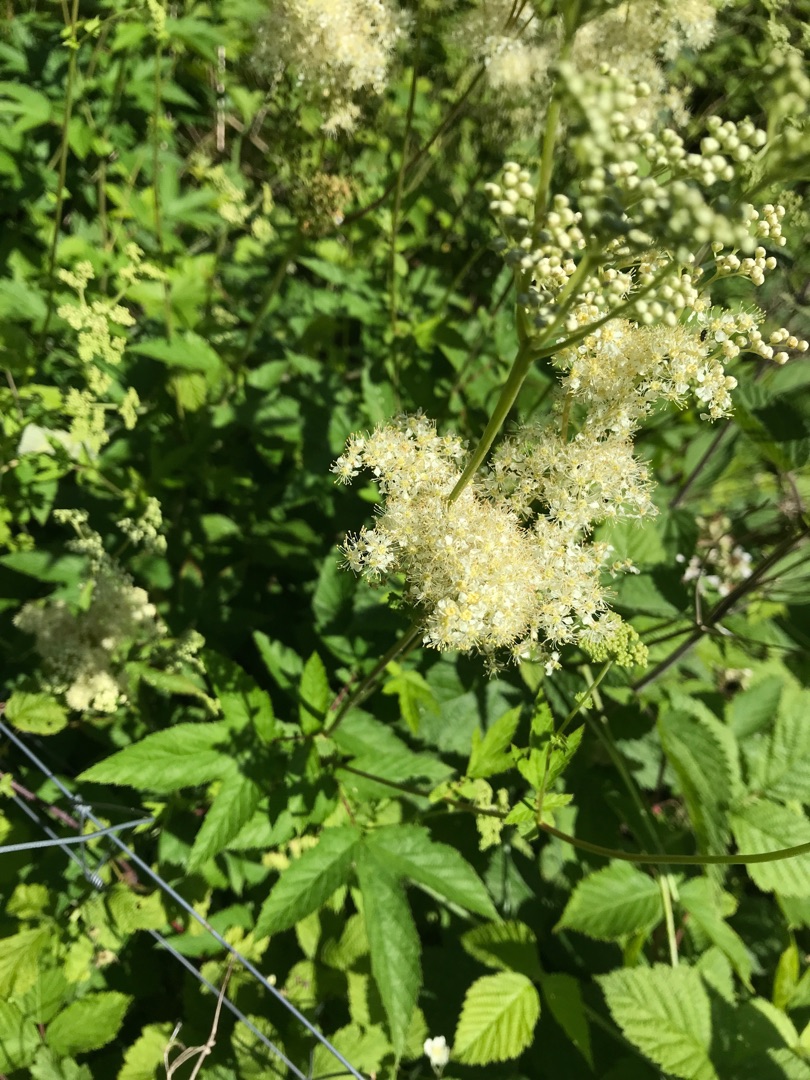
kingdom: Plantae
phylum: Tracheophyta
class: Magnoliopsida
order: Rosales
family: Rosaceae
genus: Filipendula
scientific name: Filipendula ulmaria
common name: Almindelig mjødurt
